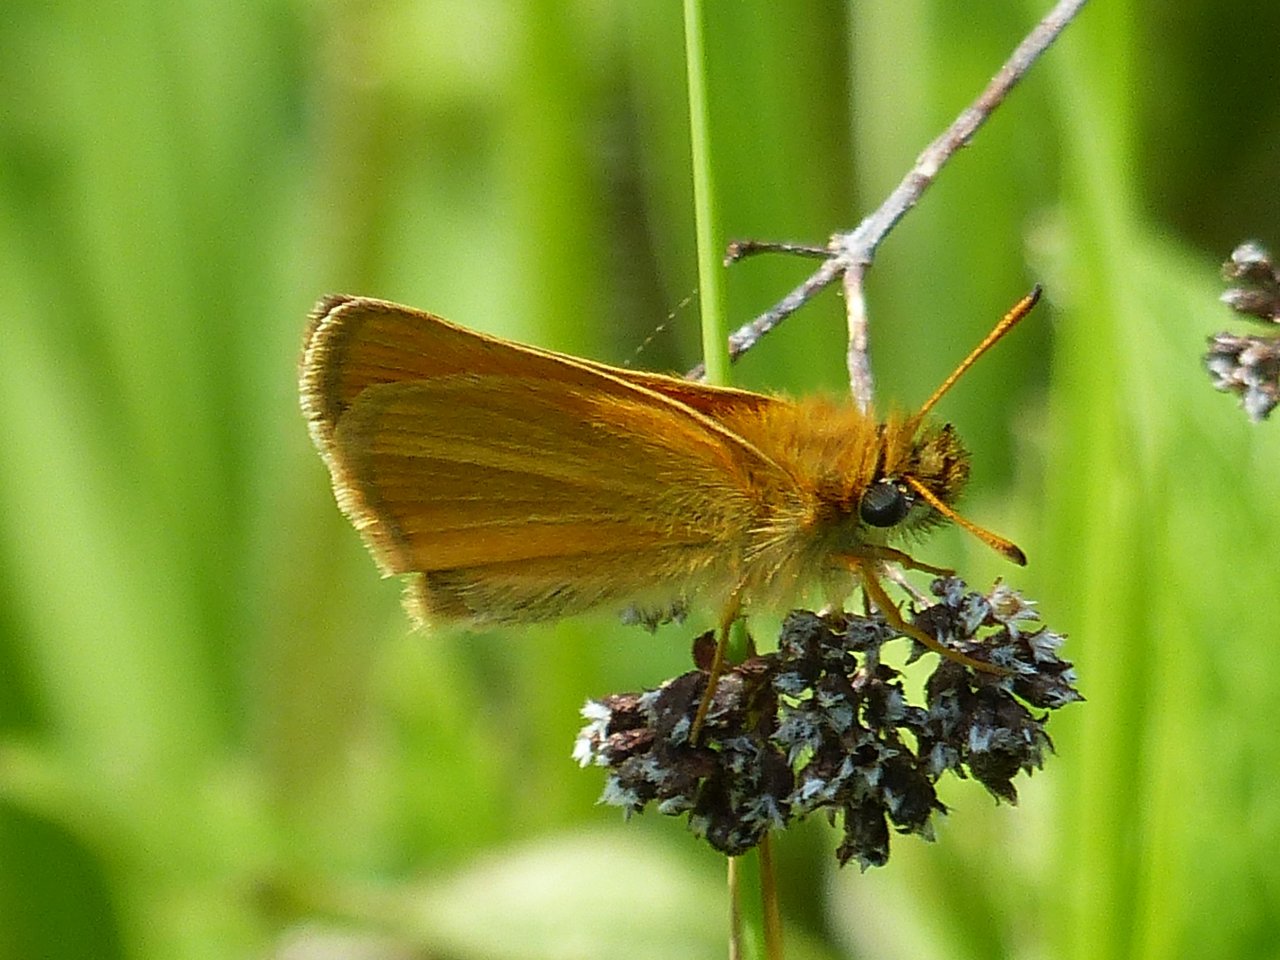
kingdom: Animalia
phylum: Arthropoda
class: Insecta
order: Lepidoptera
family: Hesperiidae
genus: Thymelicus
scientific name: Thymelicus lineola
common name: European Skipper
